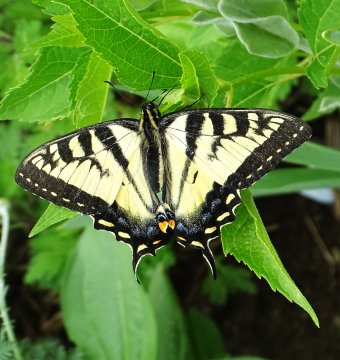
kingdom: Animalia
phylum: Arthropoda
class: Insecta
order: Lepidoptera
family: Papilionidae
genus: Pterourus
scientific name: Pterourus canadensis
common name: Canadian Tiger Swallowtail
